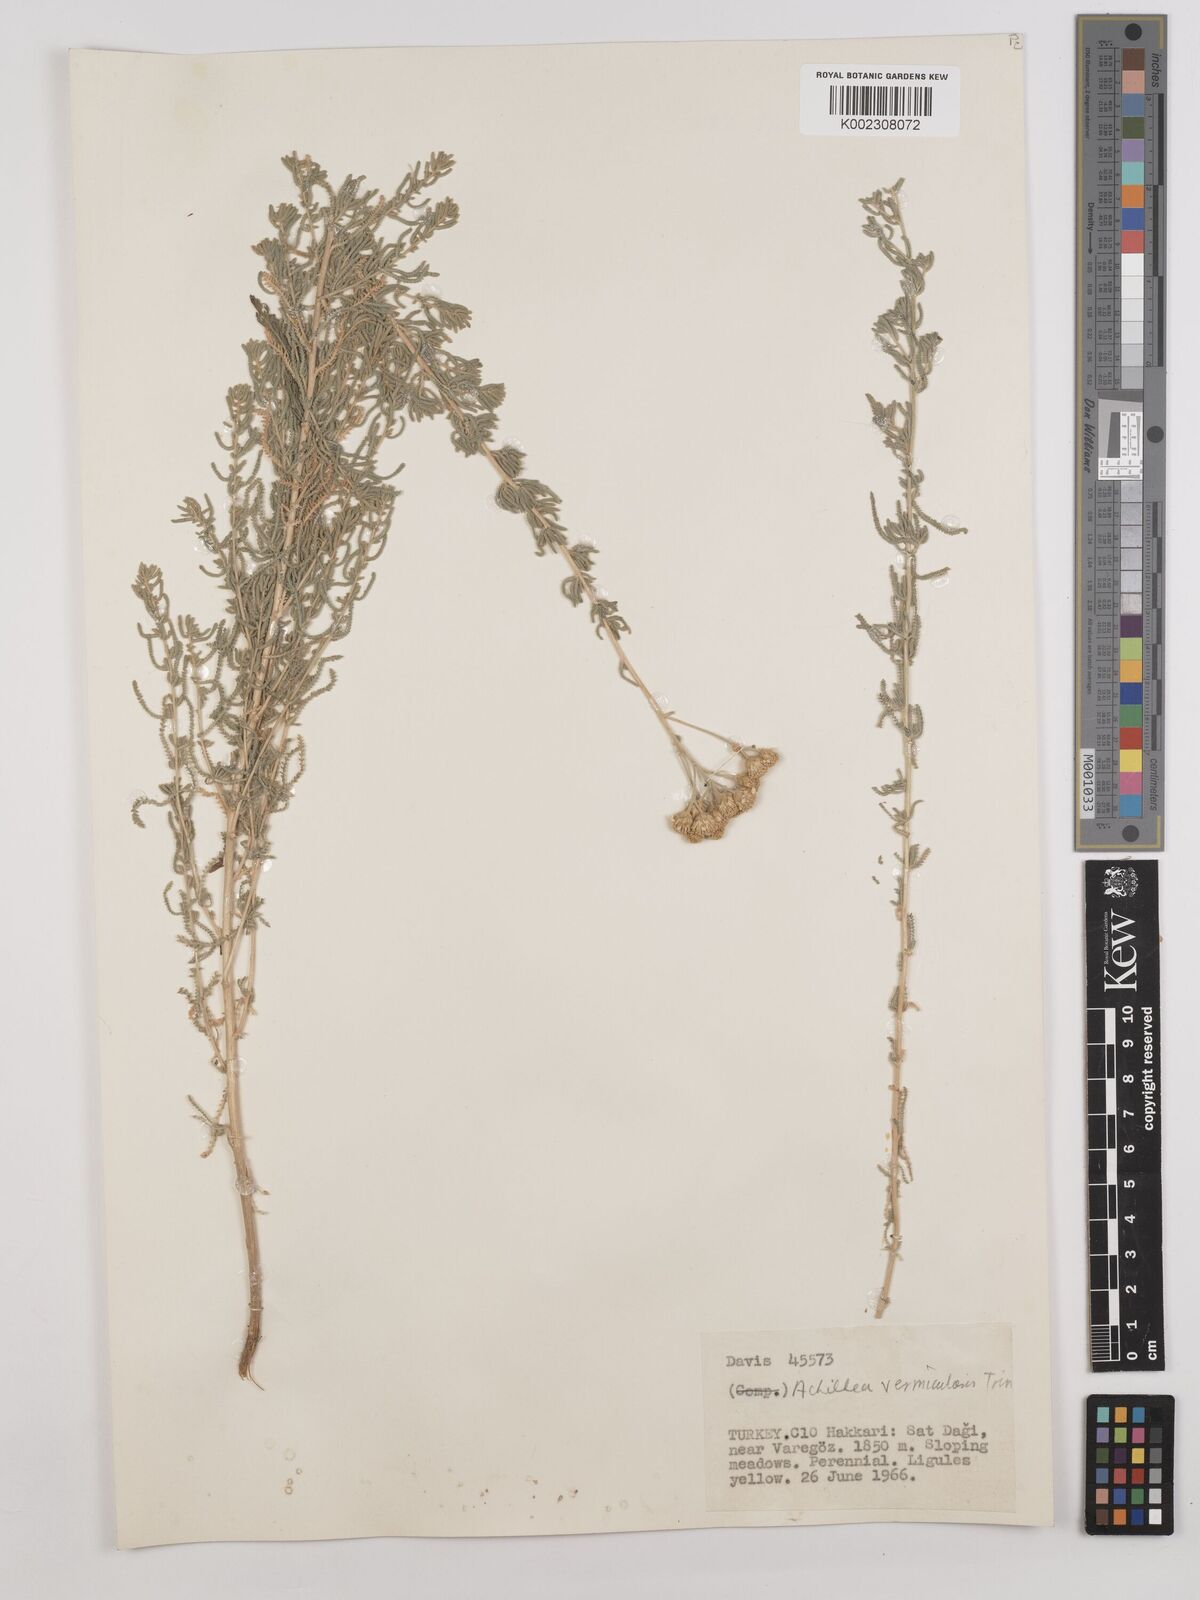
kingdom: Plantae
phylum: Tracheophyta
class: Magnoliopsida
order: Asterales
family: Asteraceae
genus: Achillea
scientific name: Achillea vermicularis
